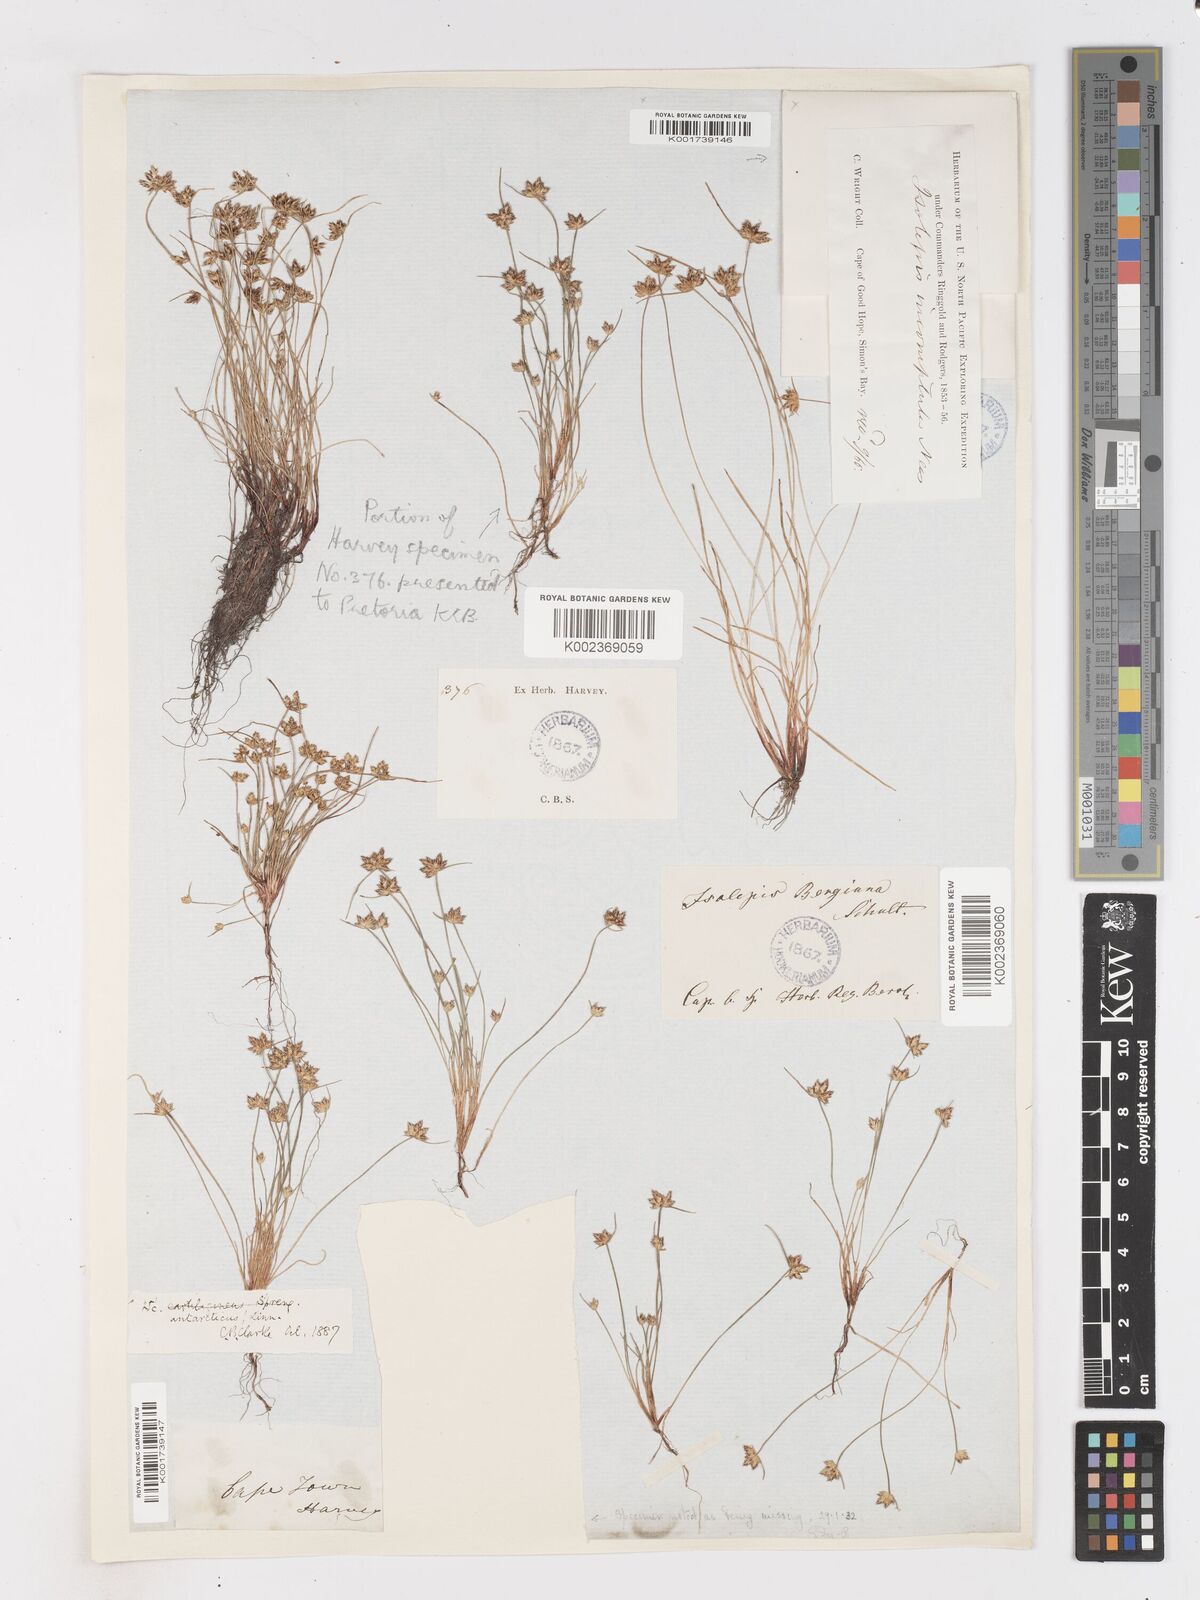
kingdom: Plantae
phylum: Tracheophyta
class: Liliopsida
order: Poales
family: Cyperaceae
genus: Isolepis
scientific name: Isolepis diabolica
